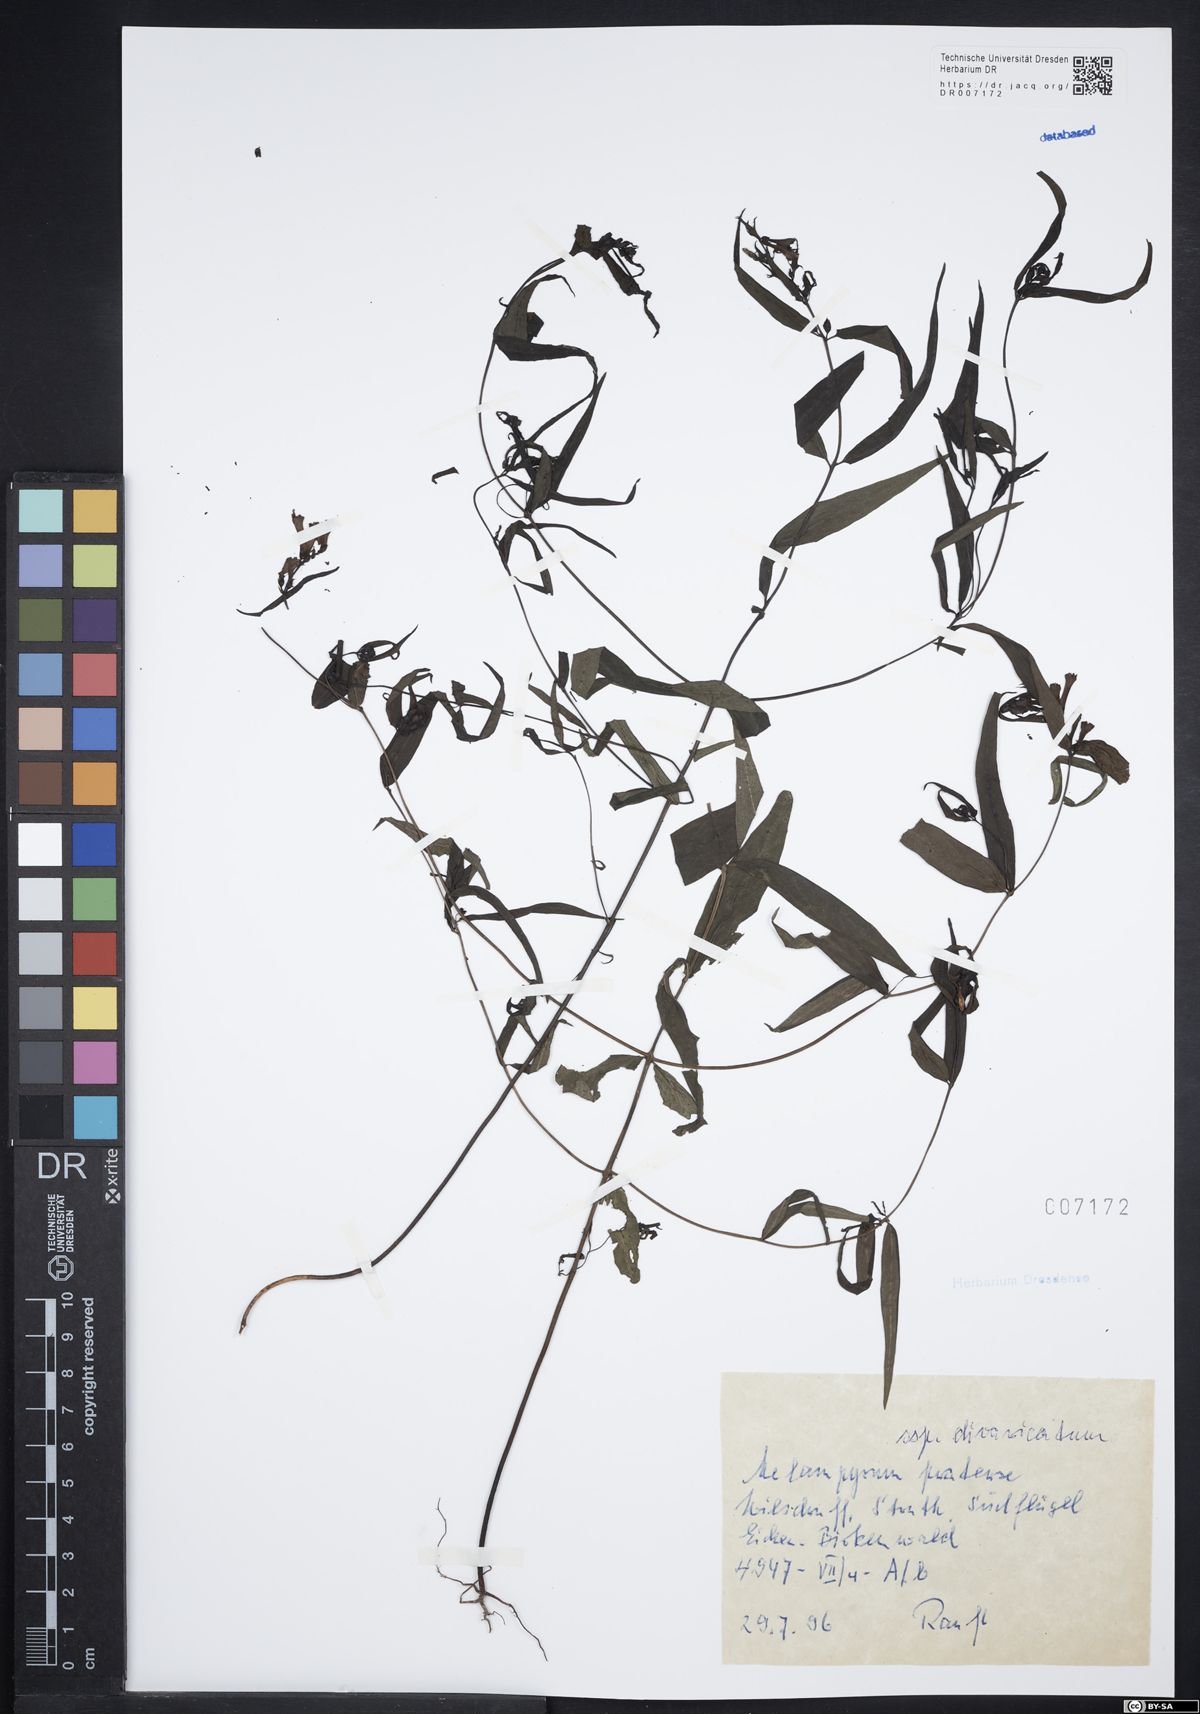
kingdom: Plantae
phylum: Tracheophyta
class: Magnoliopsida
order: Lamiales
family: Orobanchaceae
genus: Melampyrum
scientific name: Melampyrum pratense
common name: Common cow-wheat
